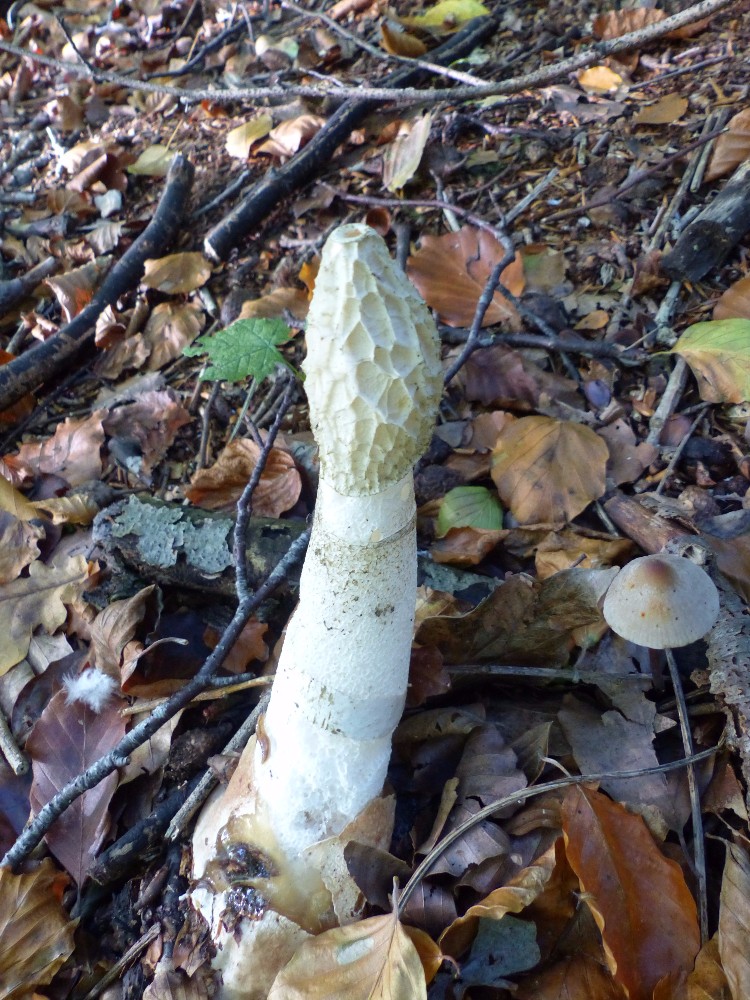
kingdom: Fungi
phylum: Basidiomycota
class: Agaricomycetes
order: Phallales
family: Phallaceae
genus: Phallus
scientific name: Phallus impudicus
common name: almindelig stinksvamp
